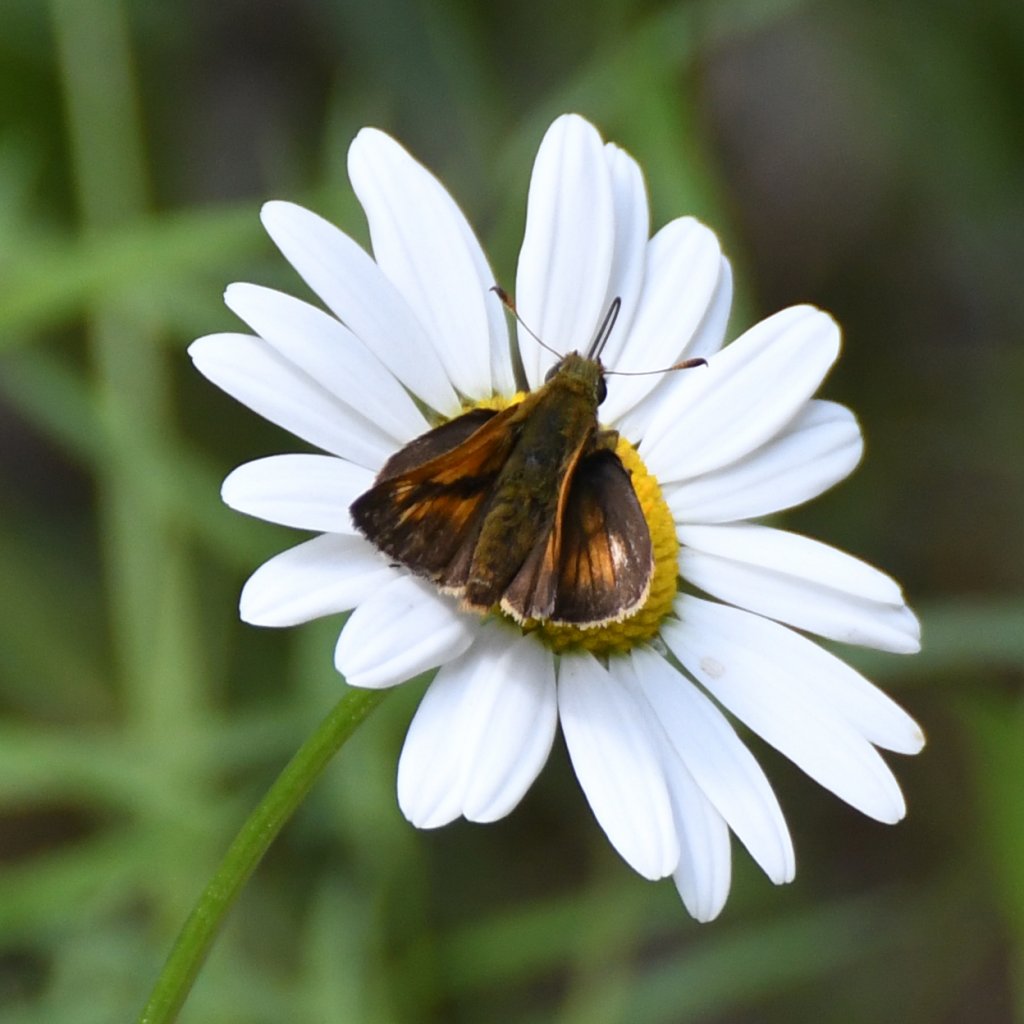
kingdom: Animalia
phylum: Arthropoda
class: Insecta
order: Lepidoptera
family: Hesperiidae
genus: Polites
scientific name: Polites
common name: Long Dash Skipper
